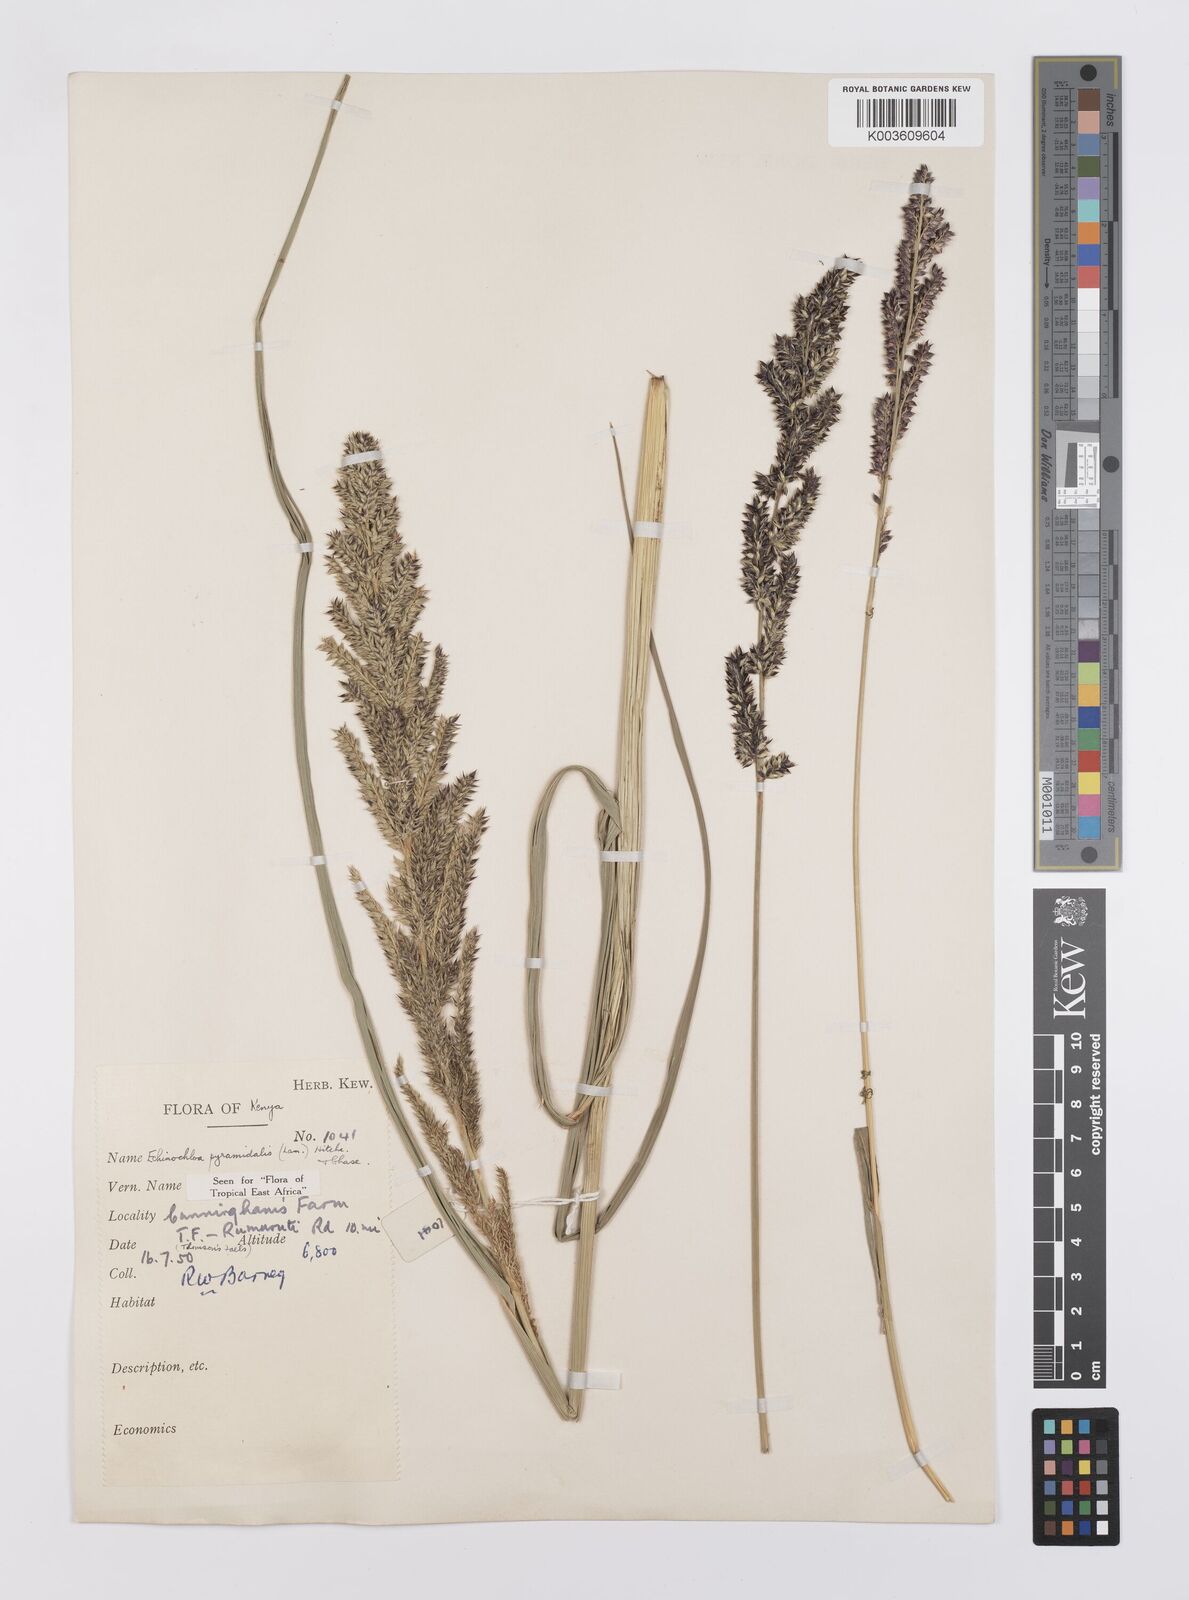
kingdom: Plantae
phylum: Tracheophyta
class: Liliopsida
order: Poales
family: Poaceae
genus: Echinochloa
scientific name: Echinochloa
